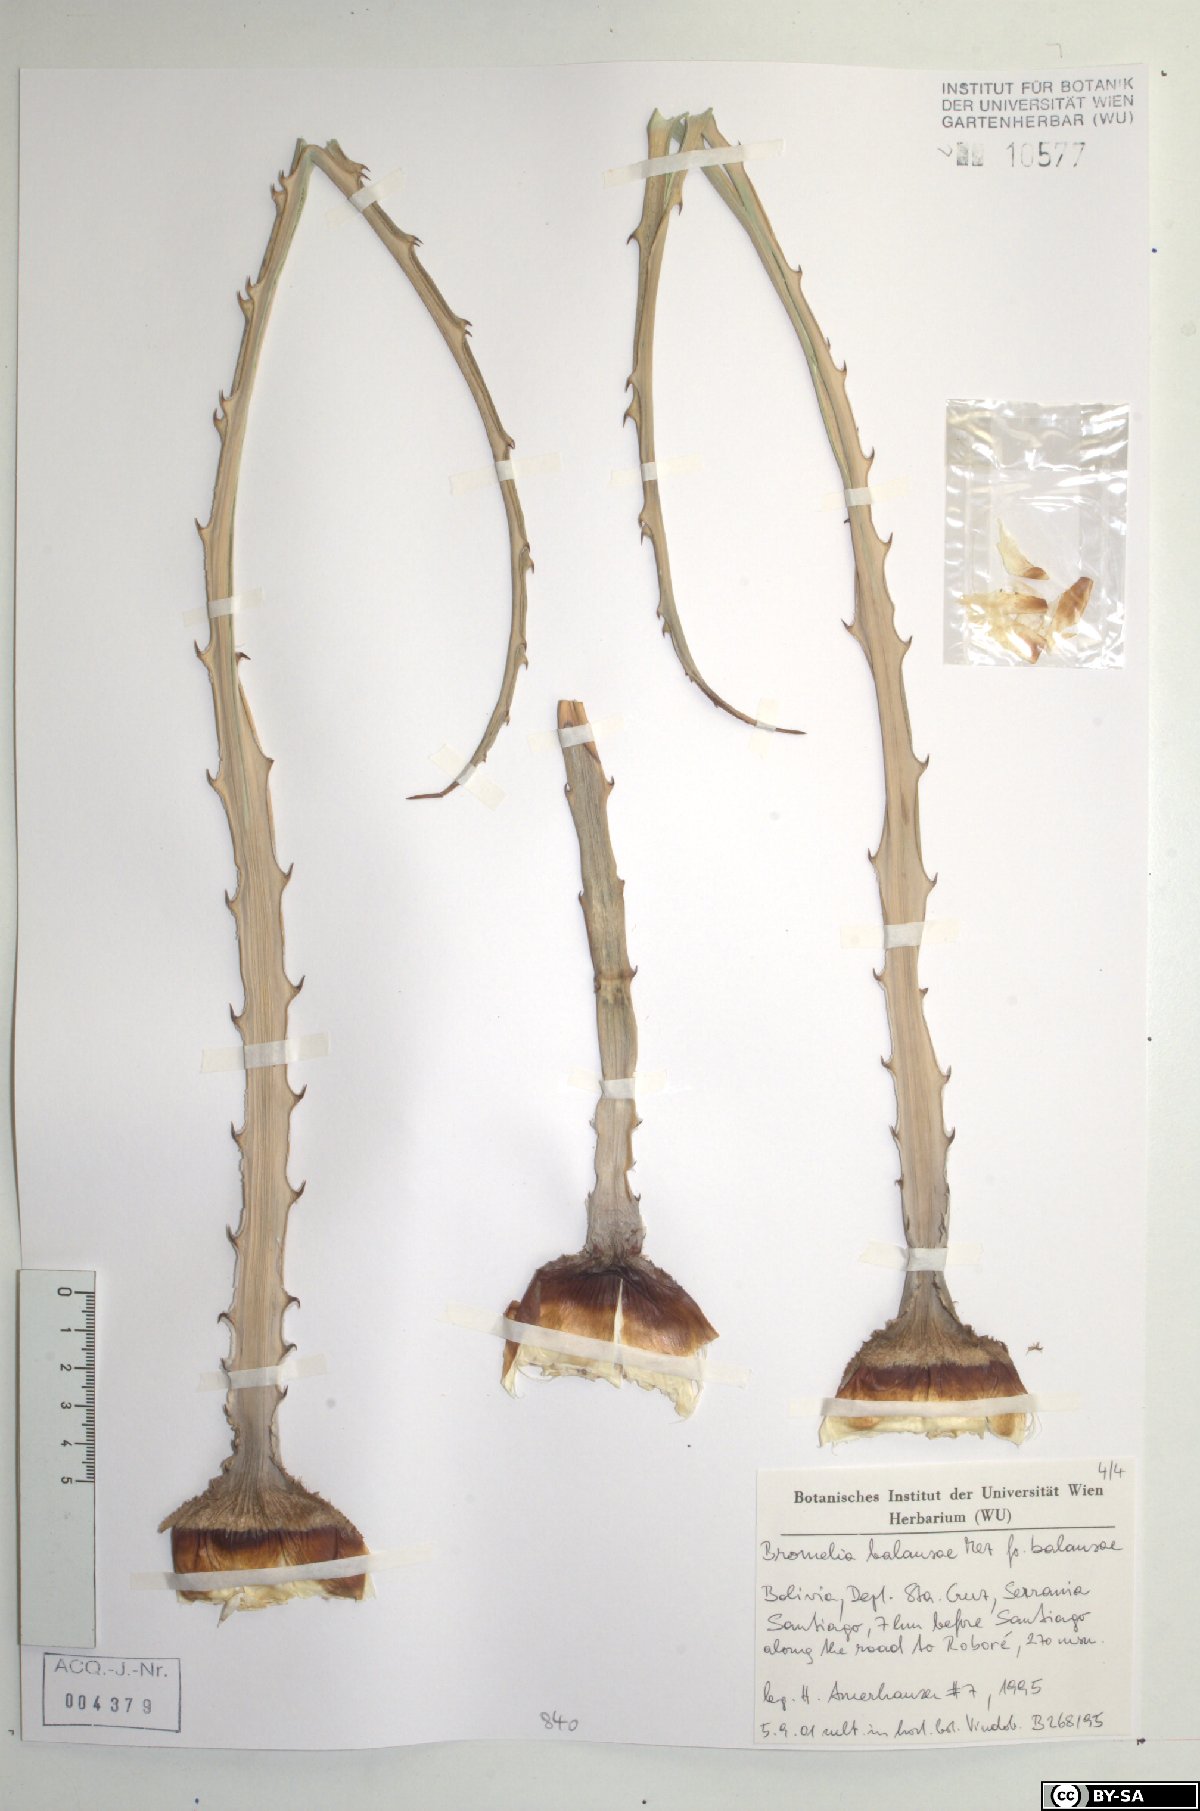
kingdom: Plantae
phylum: Tracheophyta
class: Liliopsida
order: Poales
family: Bromeliaceae
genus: Bromelia
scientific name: Bromelia balansae
